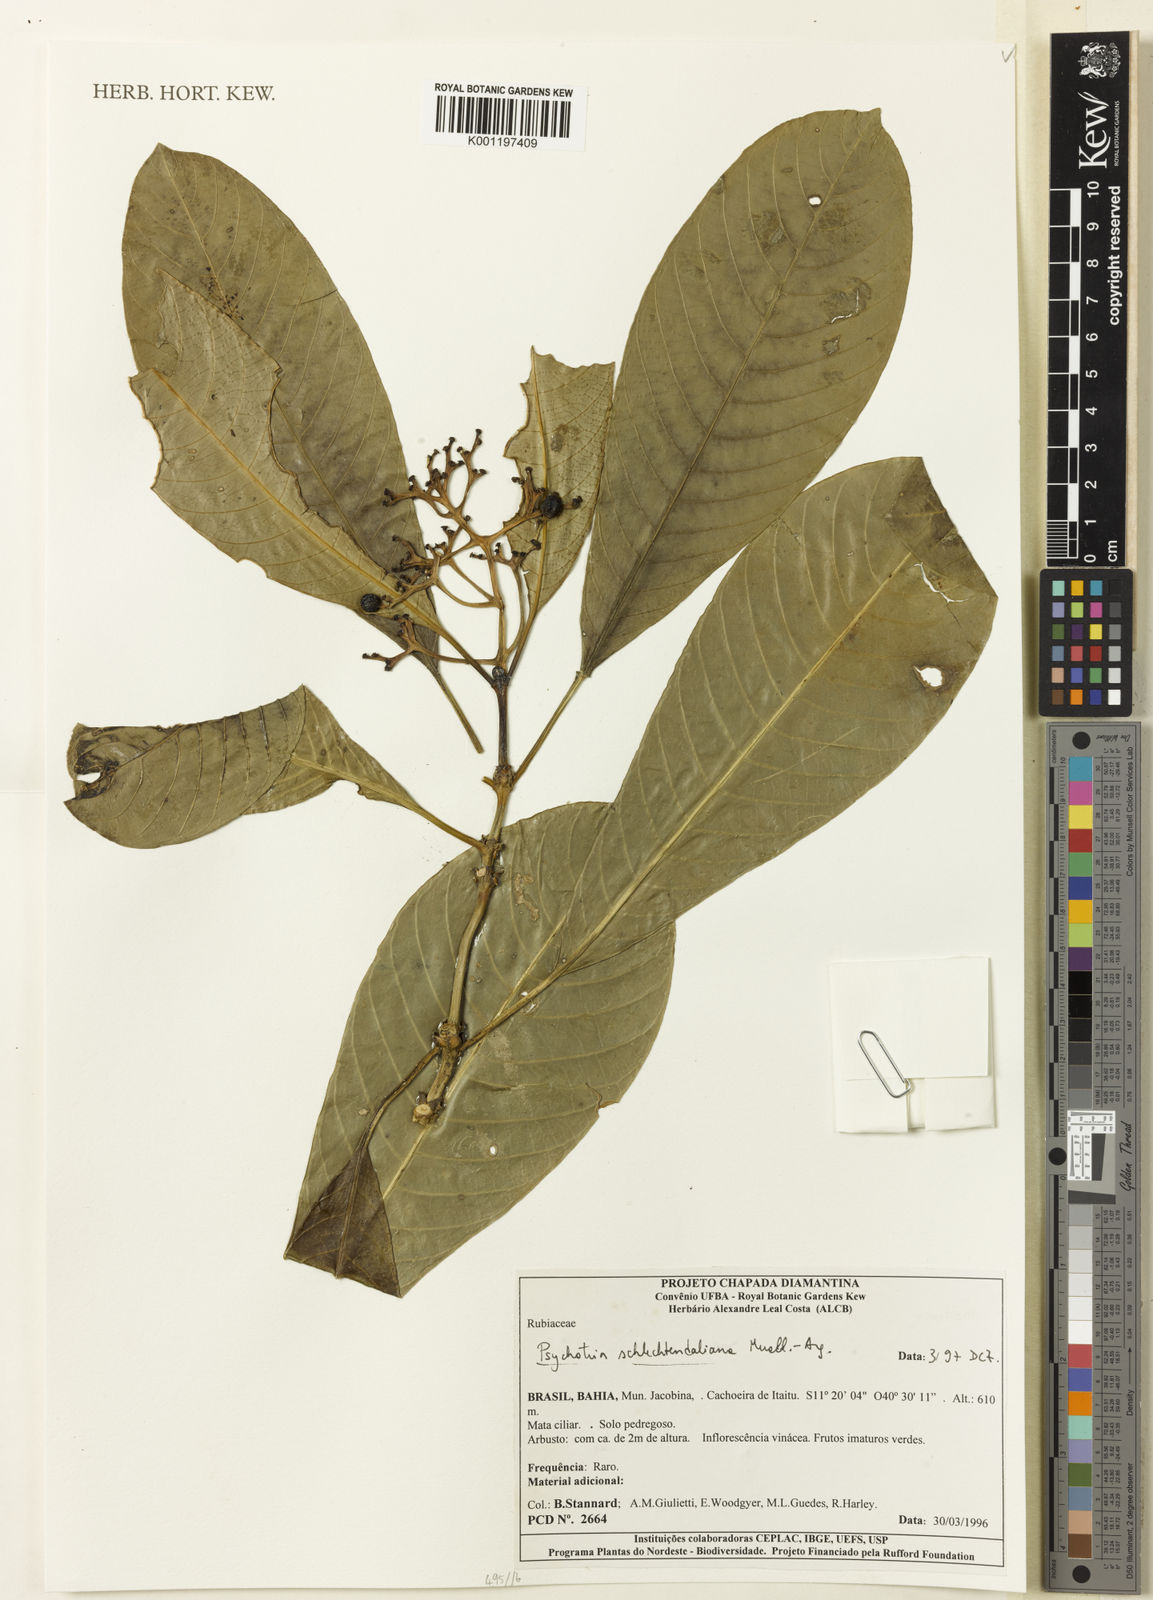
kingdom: Plantae
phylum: Tracheophyta
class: Magnoliopsida
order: Gentianales
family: Rubiaceae
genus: Psychotria
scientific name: Psychotria
